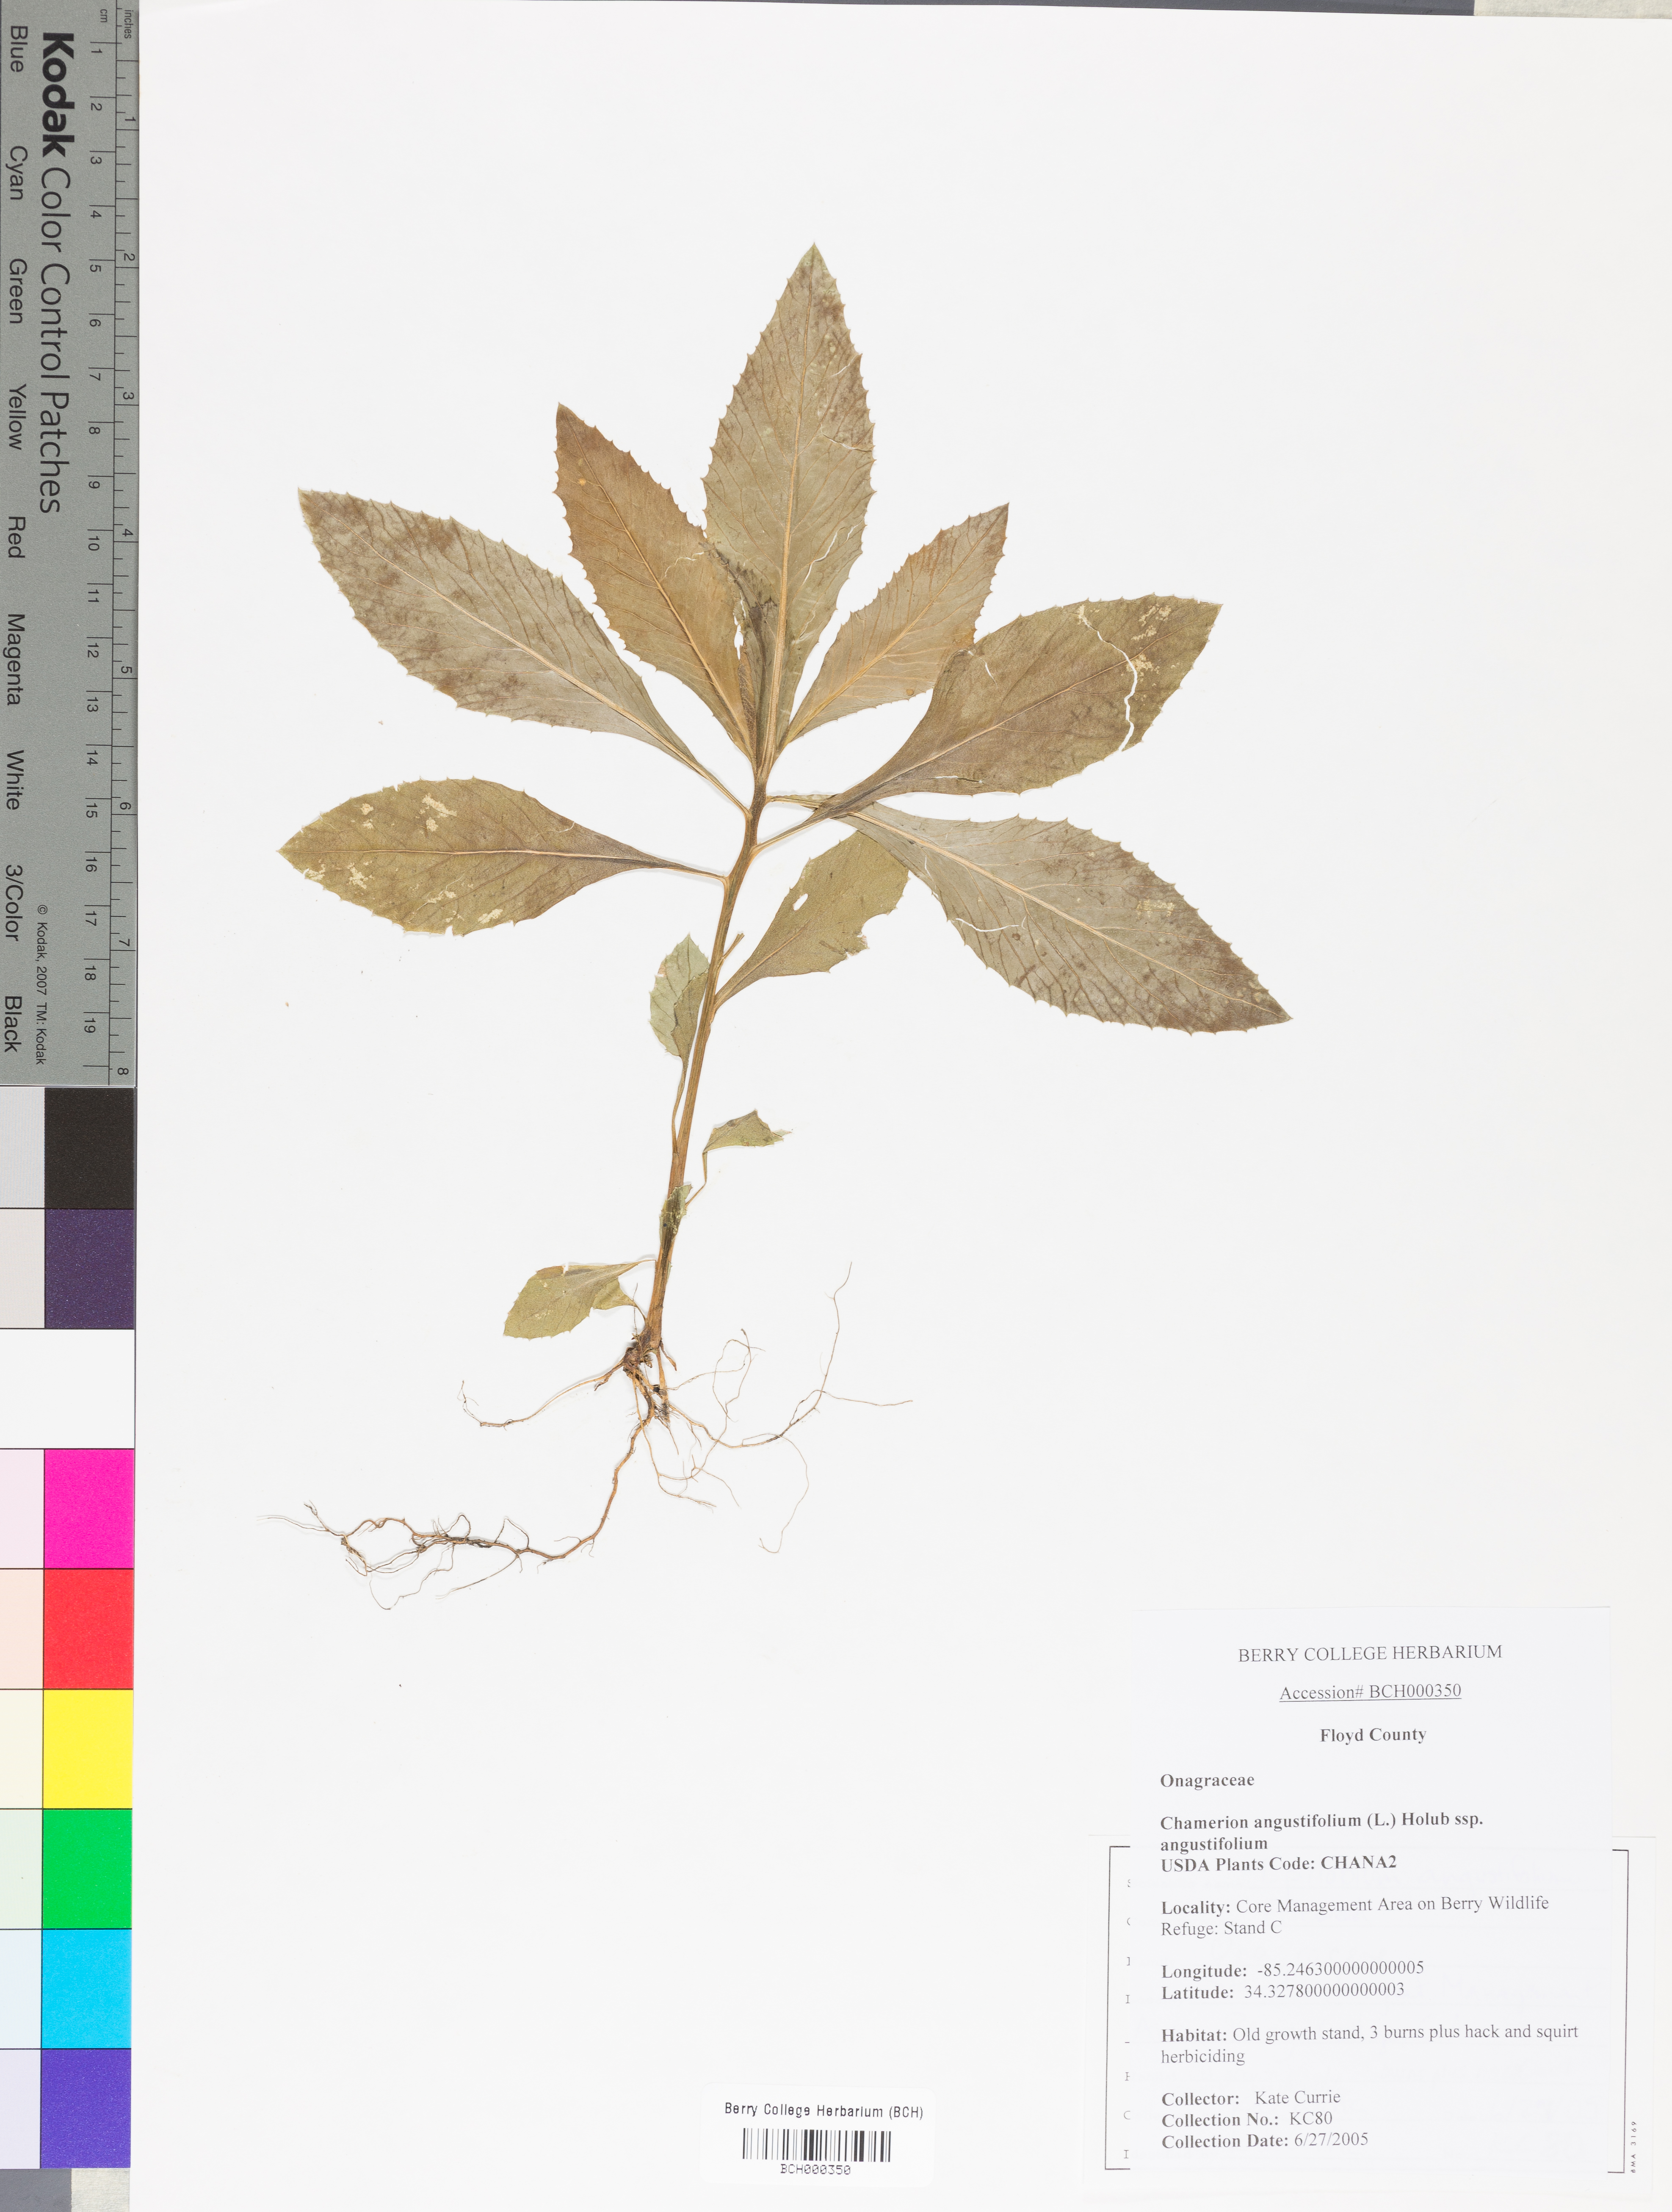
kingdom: Plantae
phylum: Tracheophyta
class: Magnoliopsida
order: Myrtales
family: Onagraceae
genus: Chamaenerion
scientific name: Chamaenerion angustifolium
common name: Fireweed
